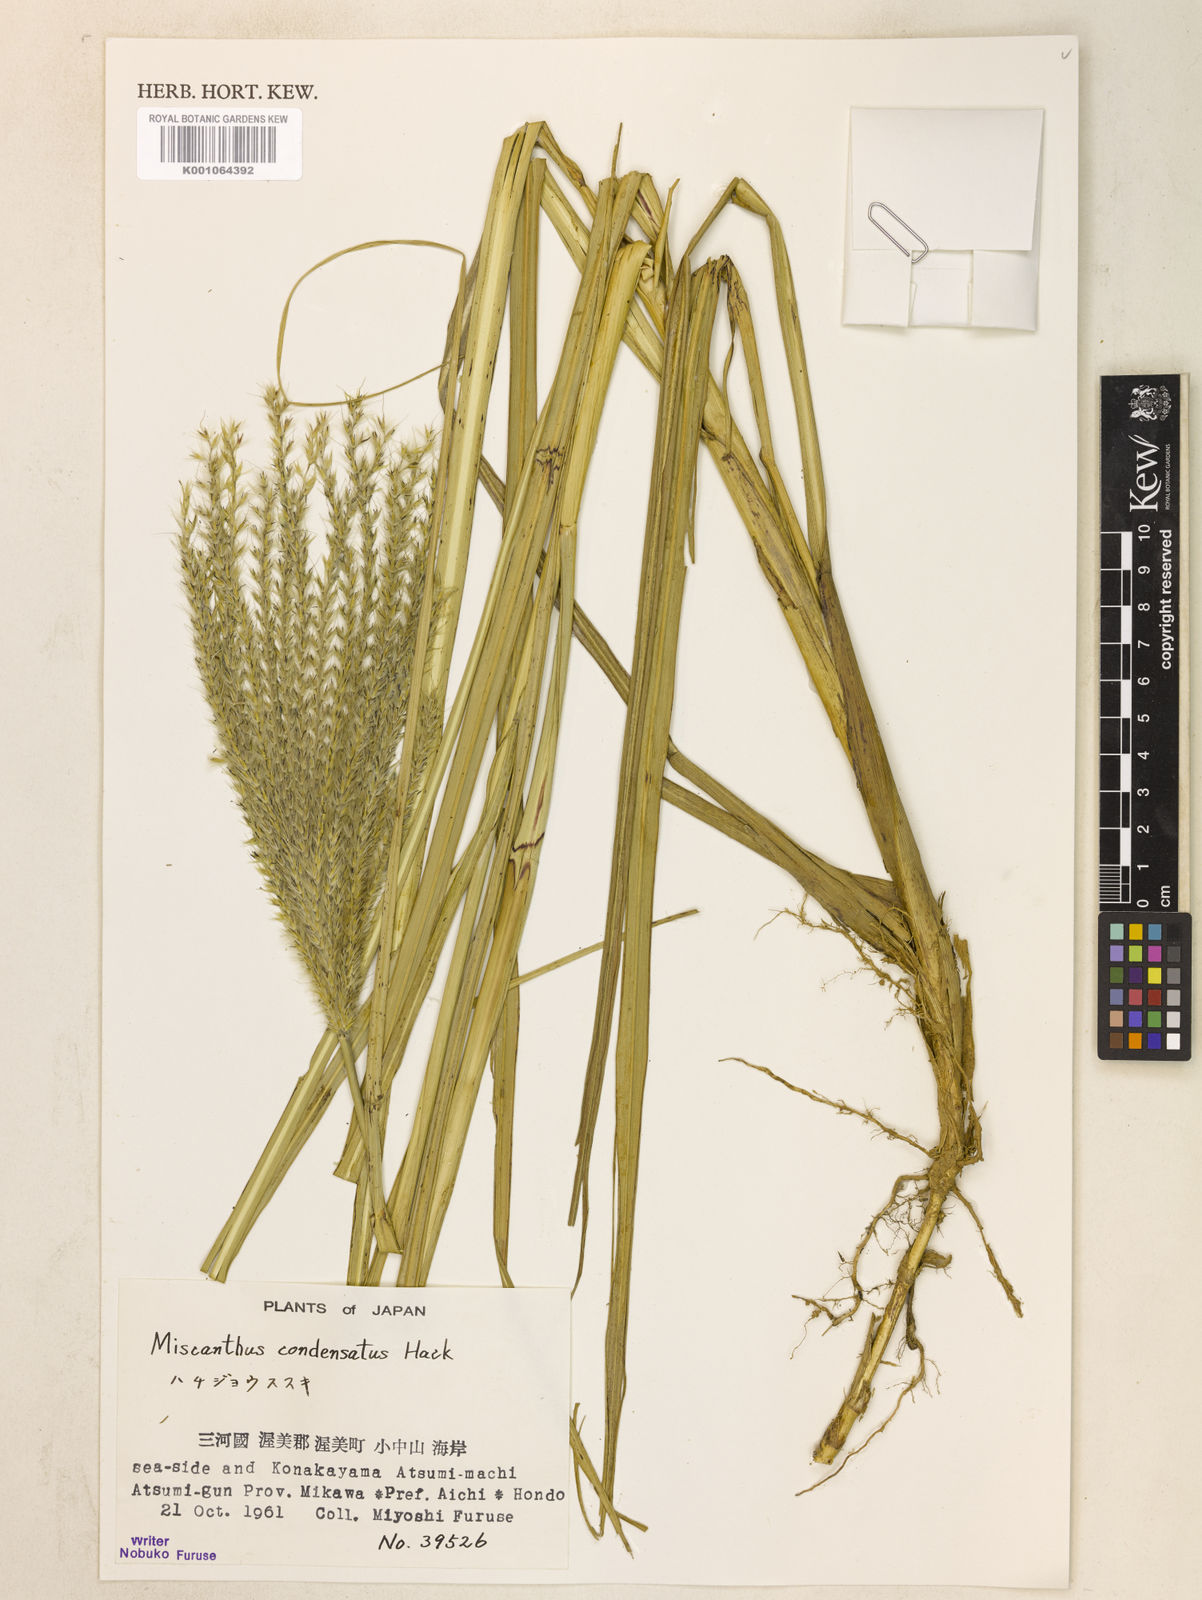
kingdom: Plantae
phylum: Tracheophyta
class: Liliopsida
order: Poales
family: Poaceae
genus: Miscanthus
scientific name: Miscanthus sinensis
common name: Chinese silvergrass
